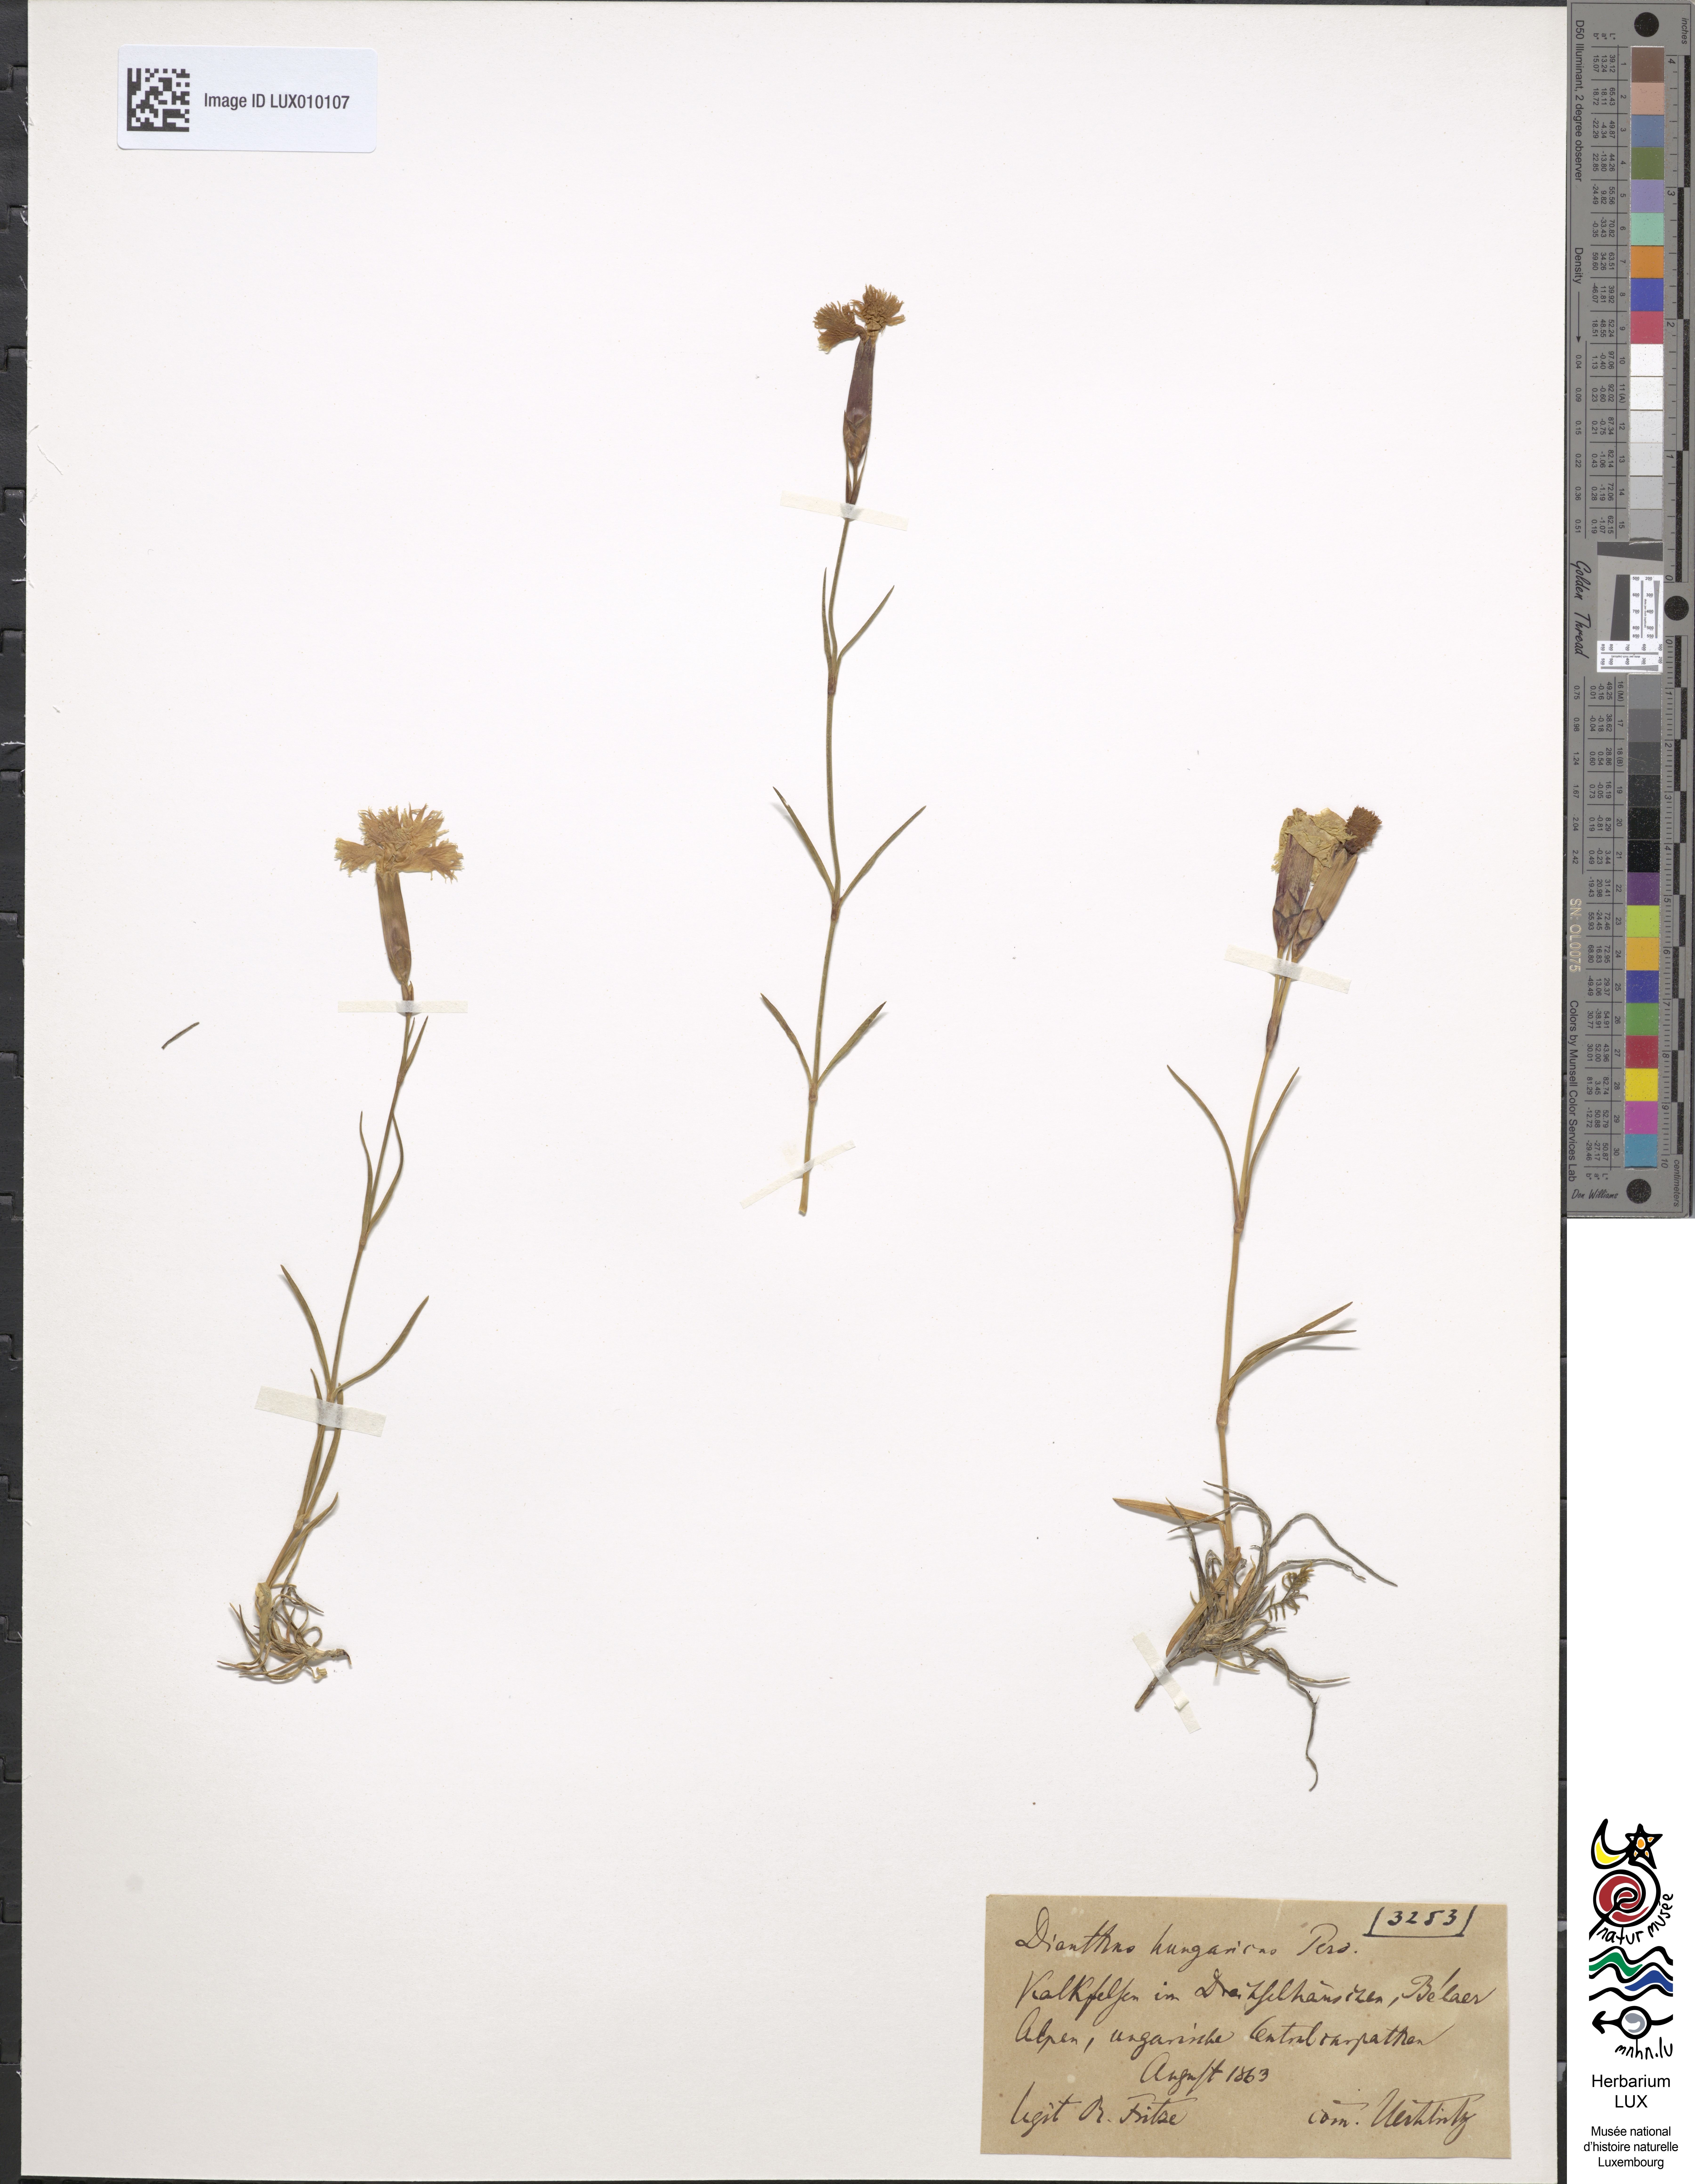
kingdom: Plantae
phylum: Tracheophyta
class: Magnoliopsida
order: Caryophyllales
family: Caryophyllaceae
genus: Dianthus
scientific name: Dianthus plumarius
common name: Pink
